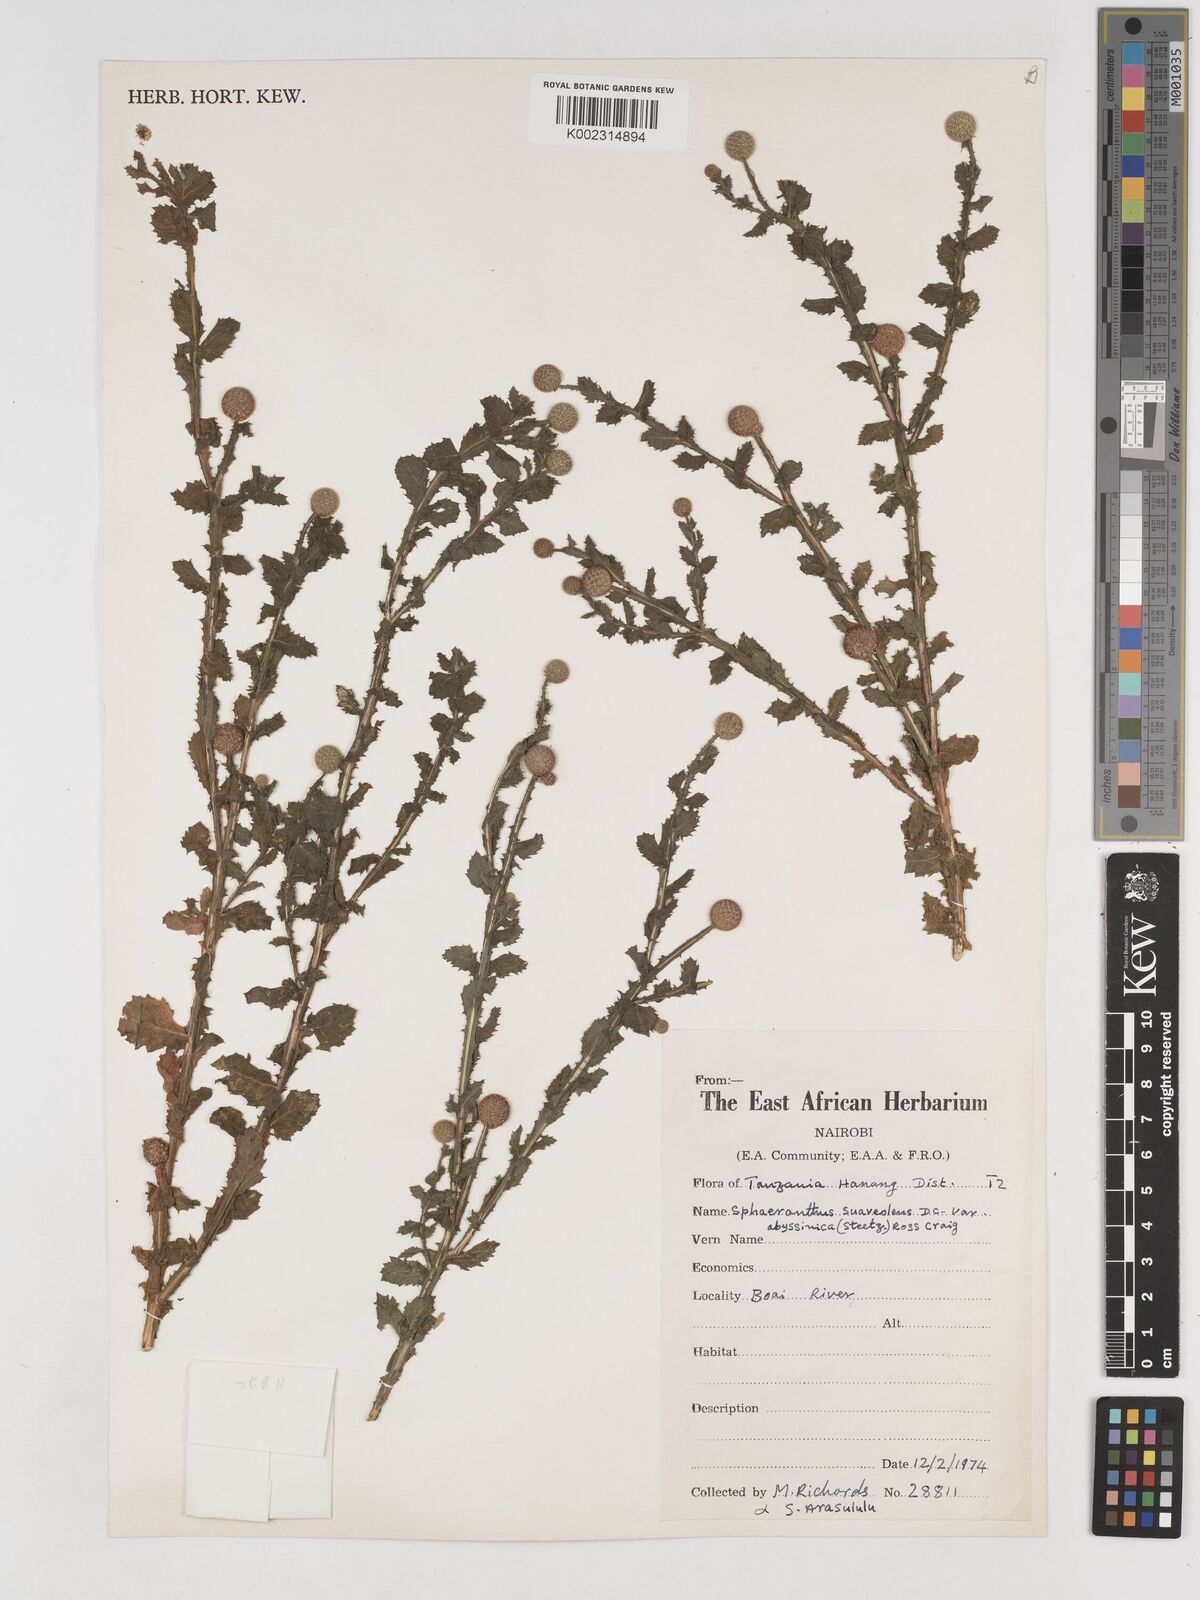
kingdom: Plantae
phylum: Tracheophyta
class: Magnoliopsida
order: Asterales
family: Asteraceae
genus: Sphaeranthus
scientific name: Sphaeranthus suaveolens
